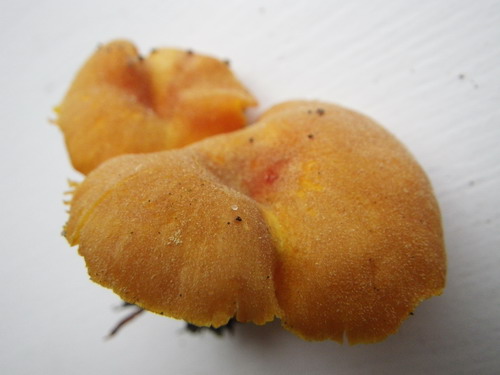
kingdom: Fungi
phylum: Basidiomycota
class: Agaricomycetes
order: Agaricales
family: Hygrophoraceae
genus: Hygrocybe
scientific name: Hygrocybe miniata
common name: mønje-vokshat
